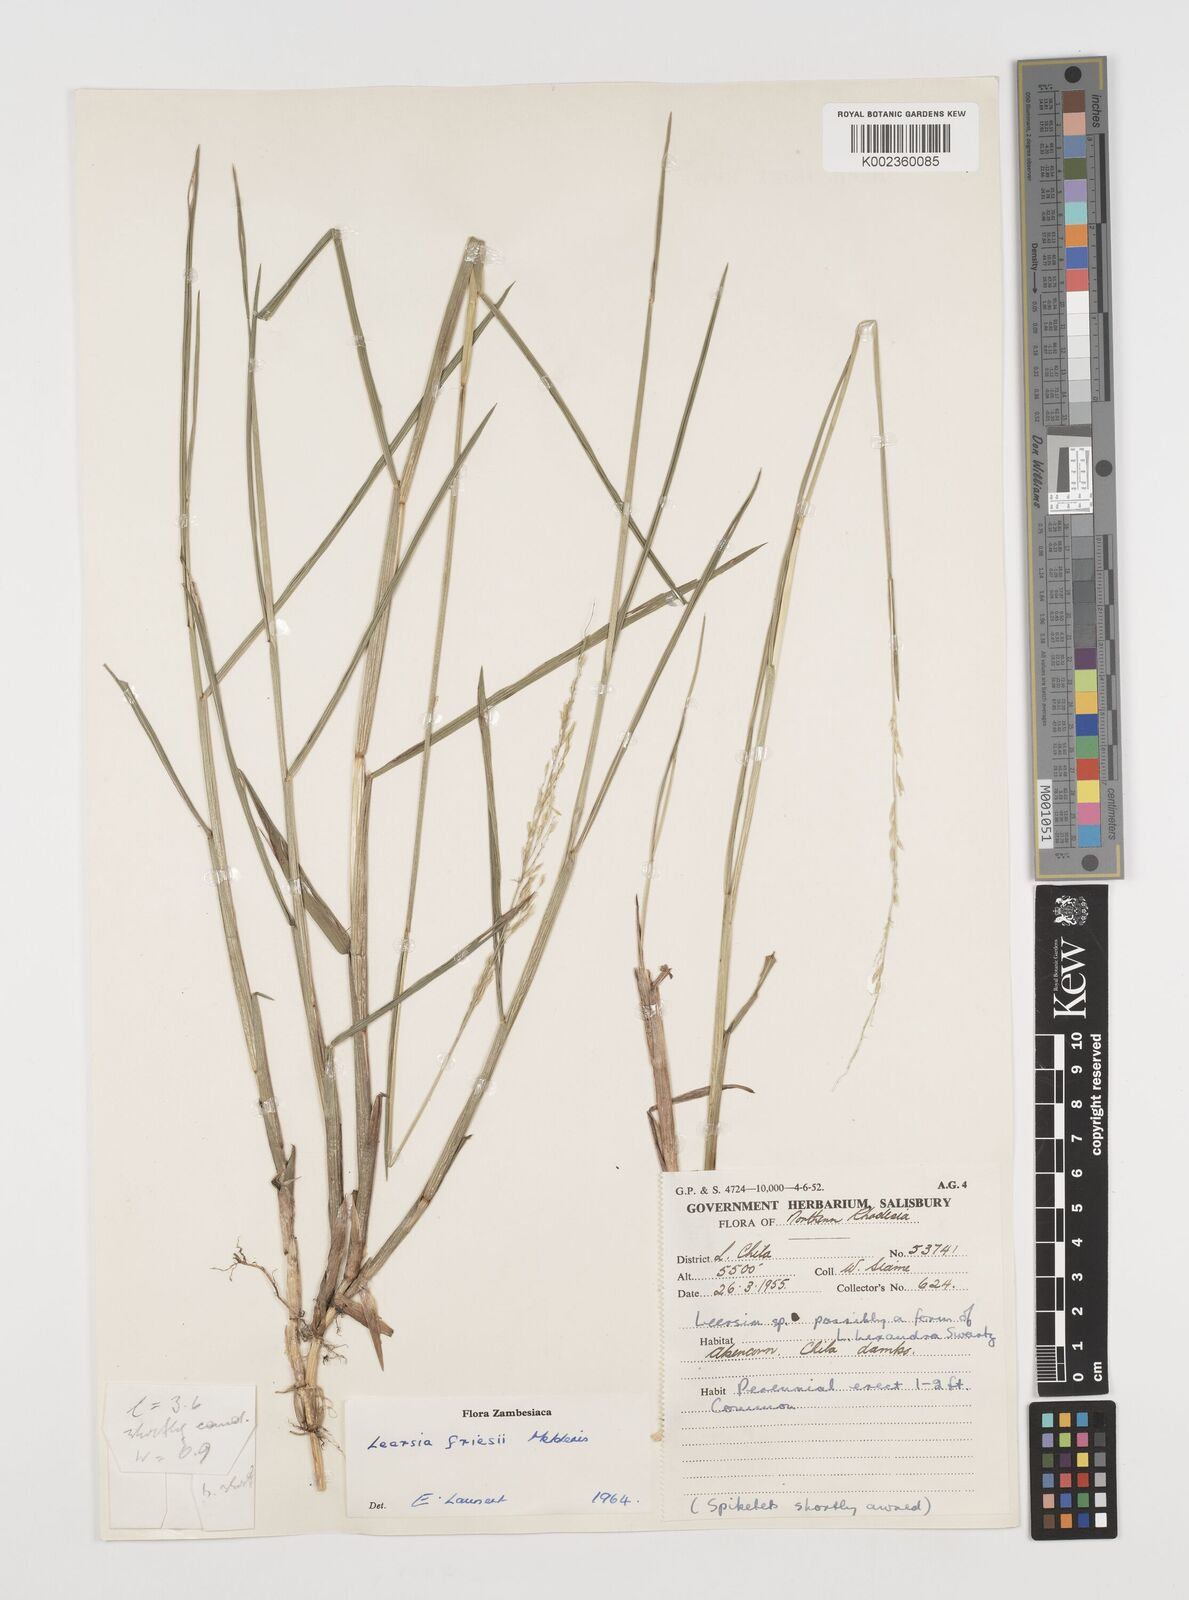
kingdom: Plantae
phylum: Tracheophyta
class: Liliopsida
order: Poales
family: Poaceae
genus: Leersia
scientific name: Leersia friesii
